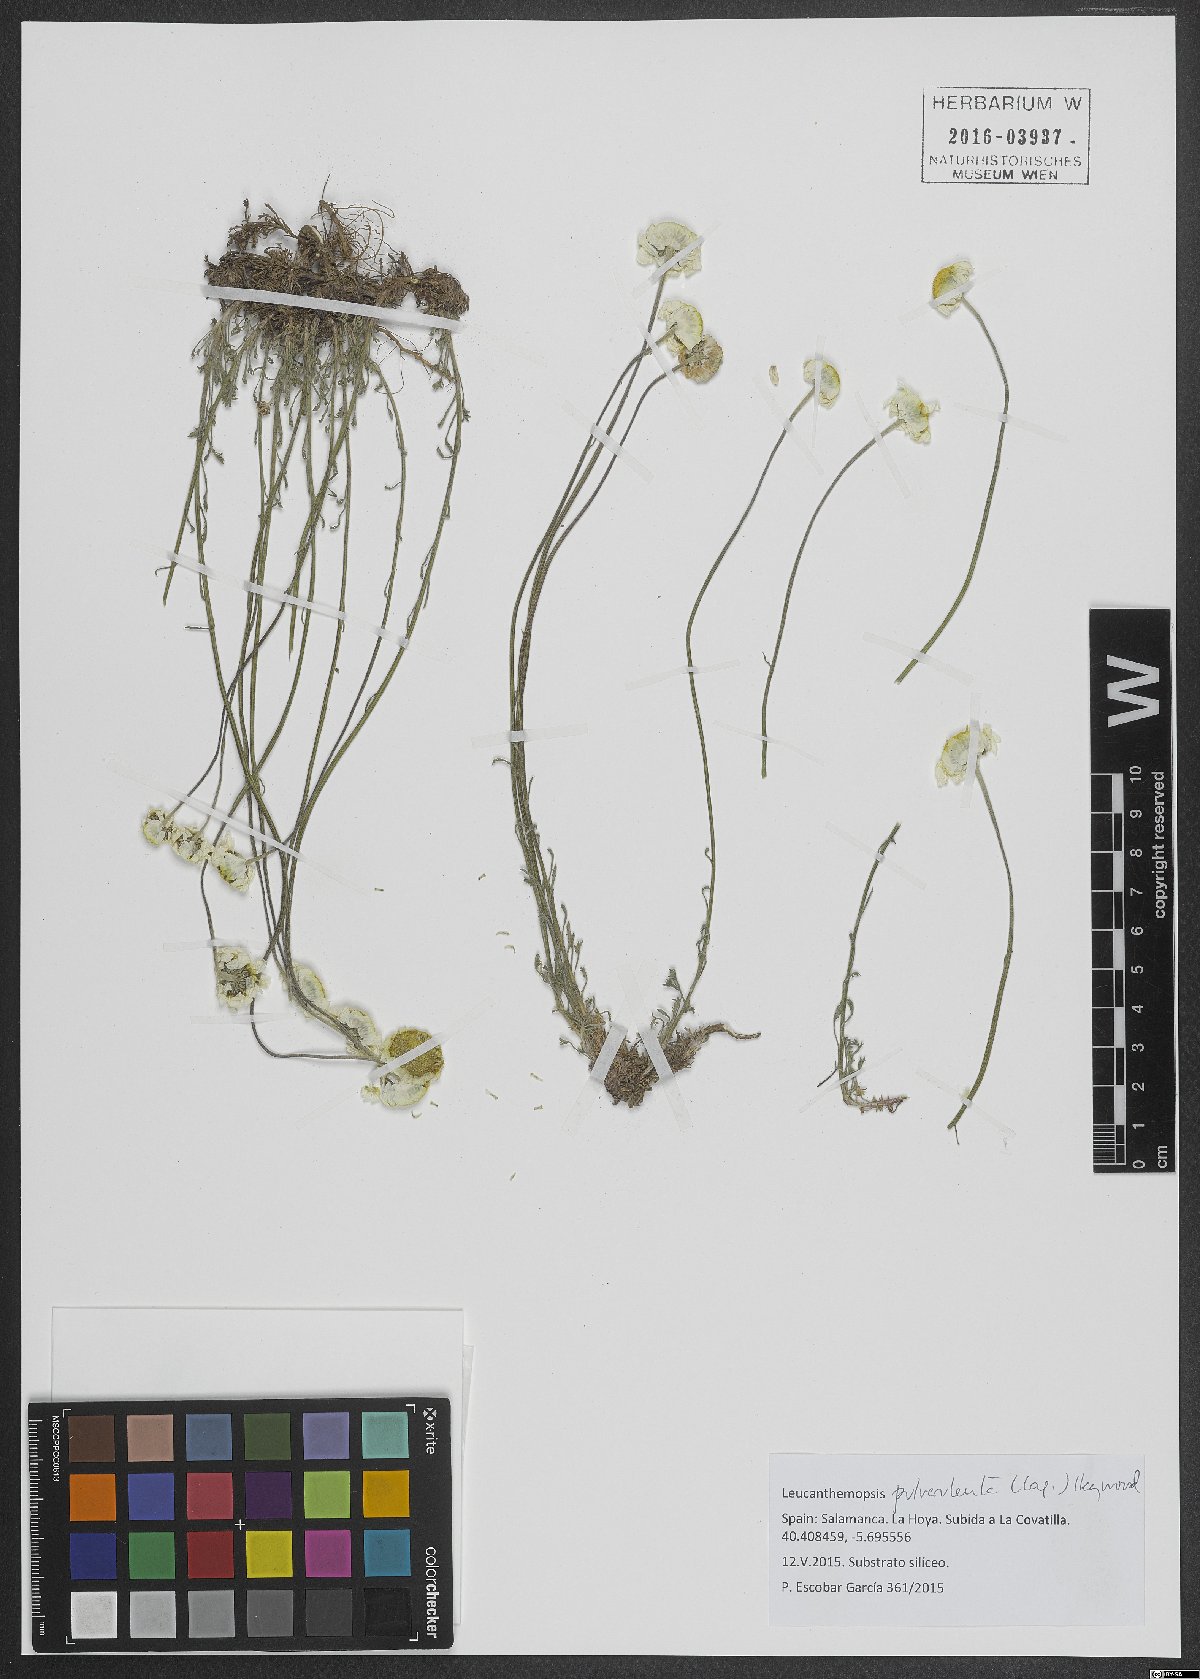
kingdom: Plantae
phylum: Tracheophyta
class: Magnoliopsida
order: Asterales
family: Asteraceae
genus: Leucanthemopsis
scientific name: Leucanthemopsis pulverulenta
